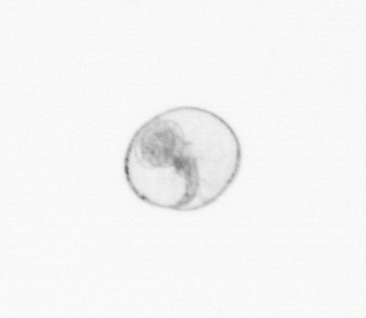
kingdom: Chromista
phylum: Myzozoa
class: Dinophyceae
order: Noctilucales
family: Noctilucaceae
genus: Noctiluca
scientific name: Noctiluca scintillans
